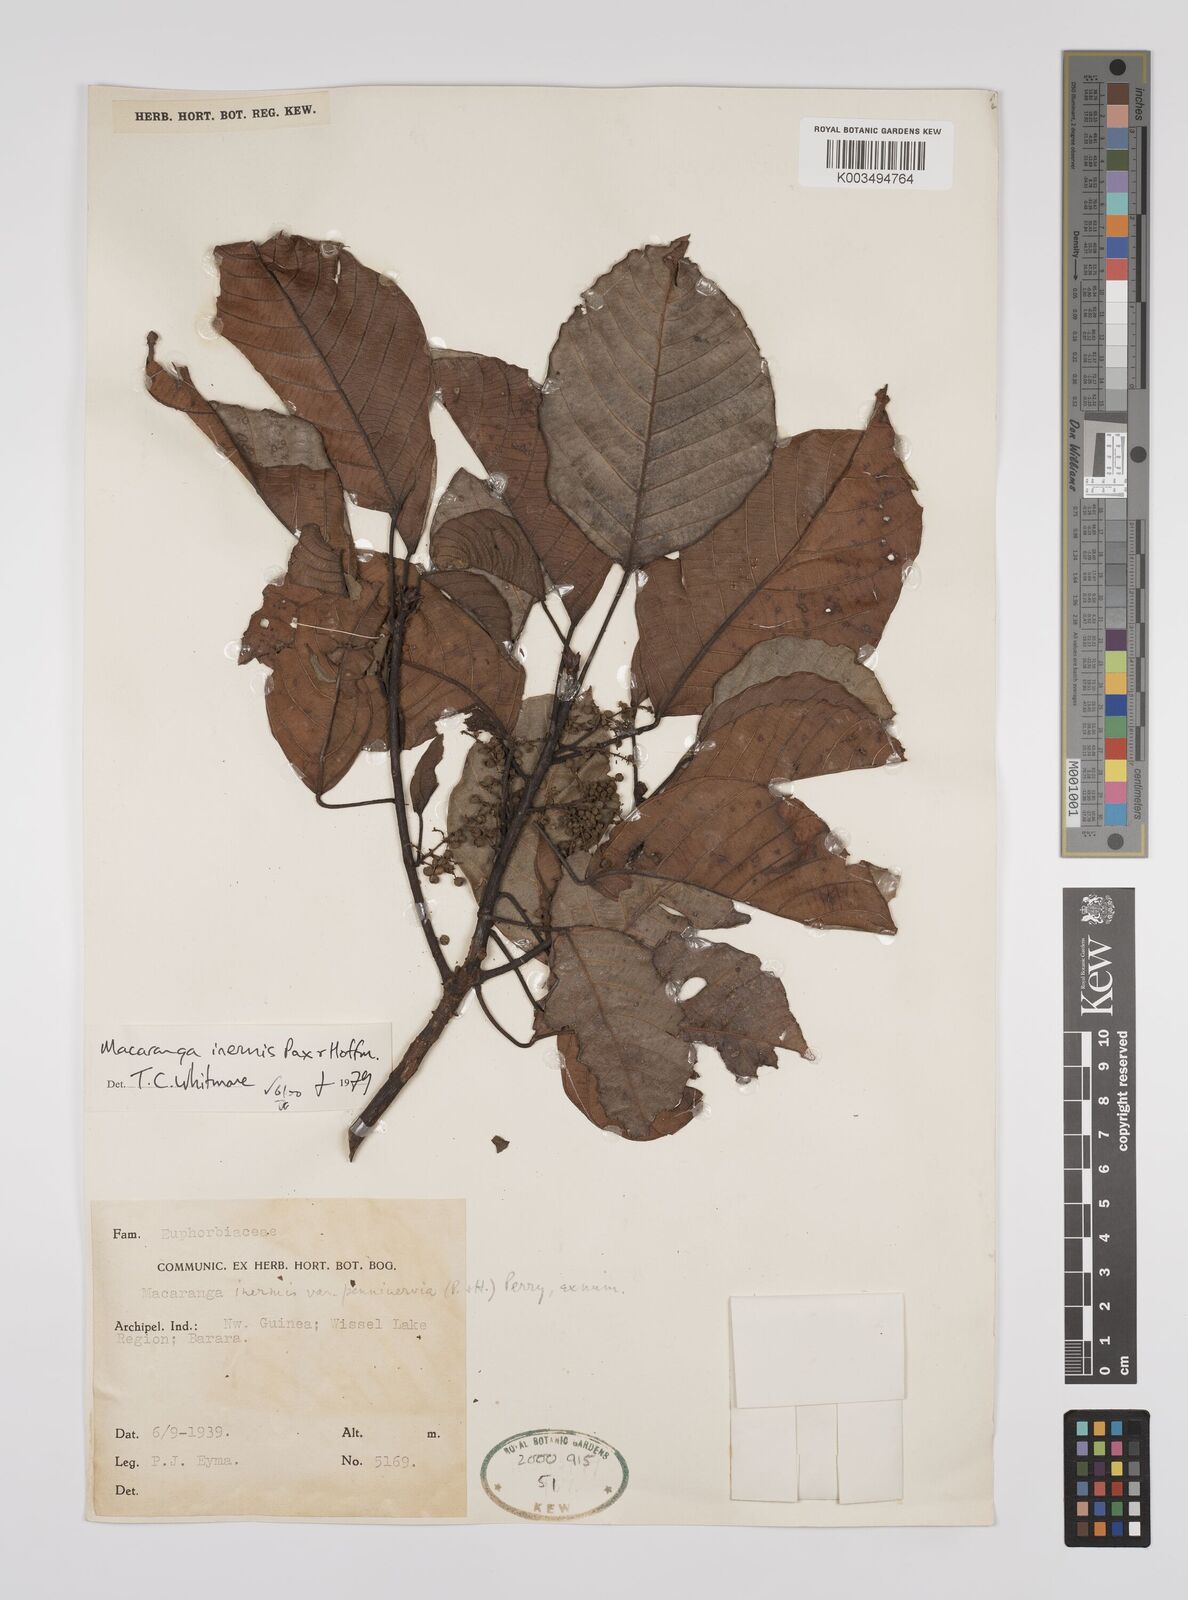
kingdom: Plantae
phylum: Tracheophyta
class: Magnoliopsida
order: Malpighiales
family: Euphorbiaceae
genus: Macaranga
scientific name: Macaranga inermis
